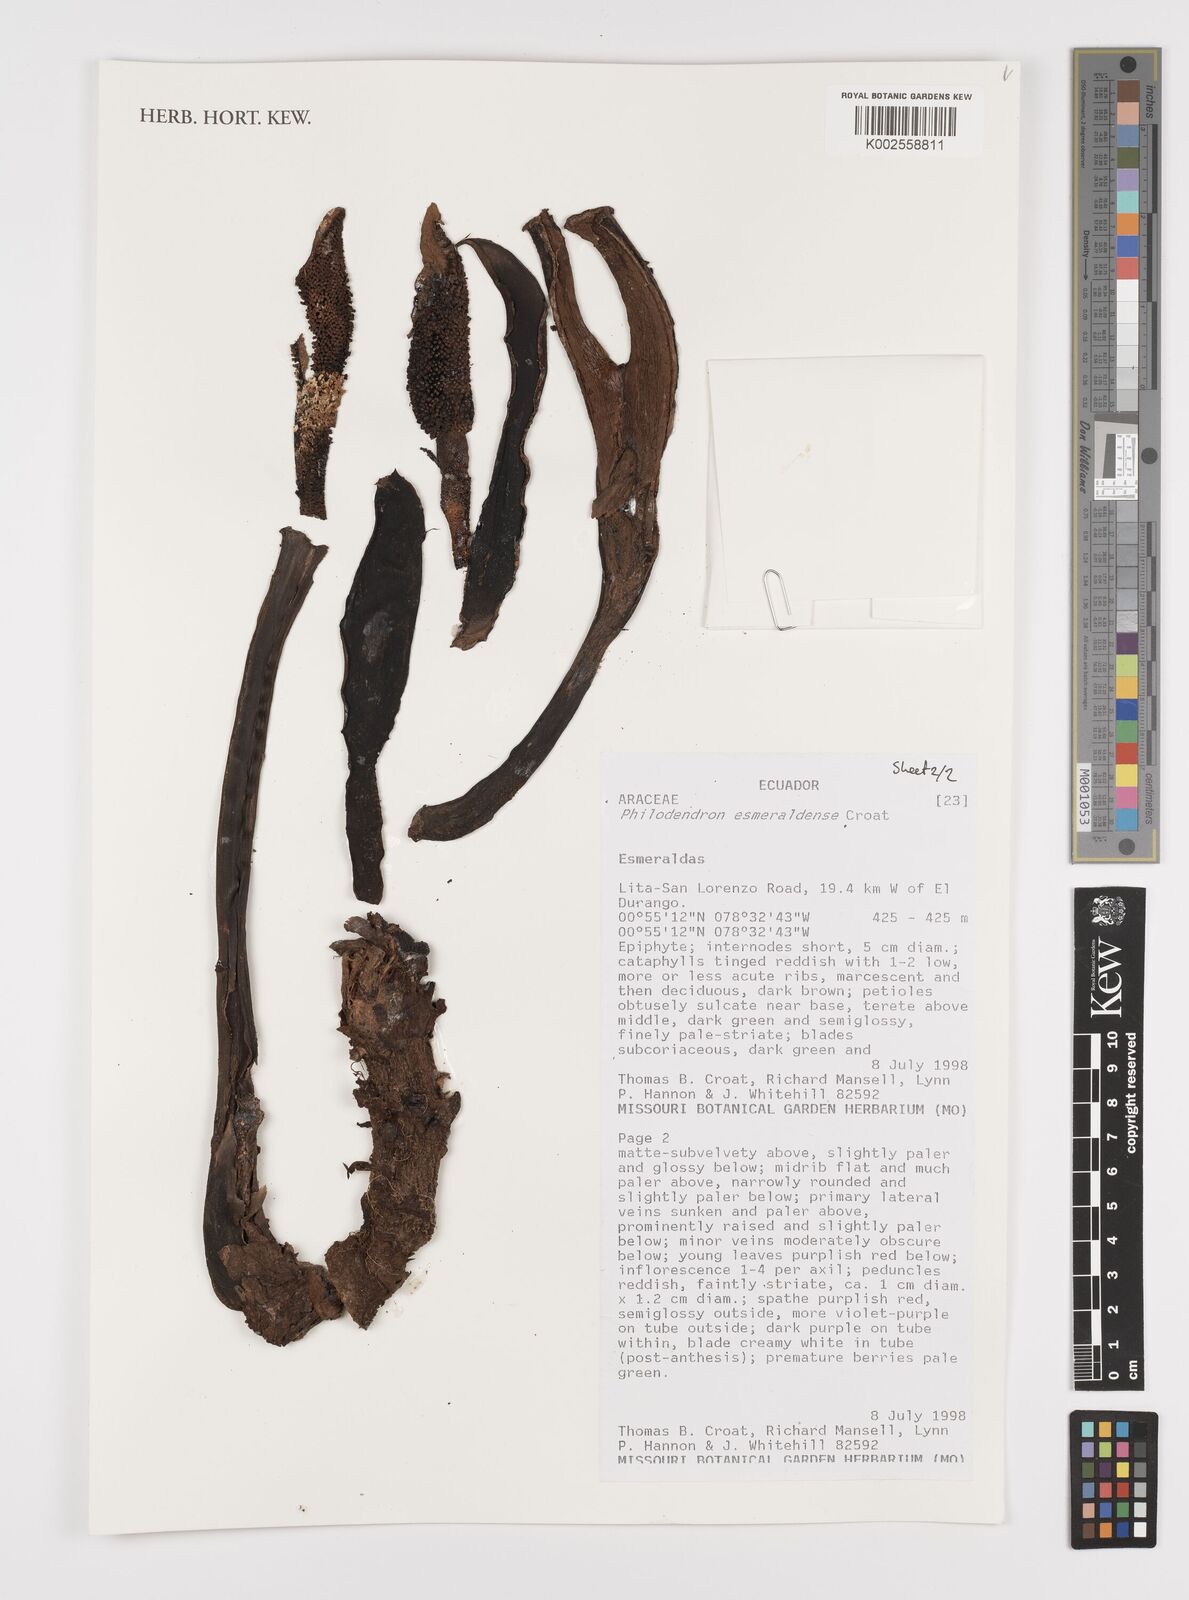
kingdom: Plantae
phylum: Tracheophyta
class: Liliopsida
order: Alismatales
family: Araceae
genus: Philodendron
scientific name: Philodendron esmeraldense
